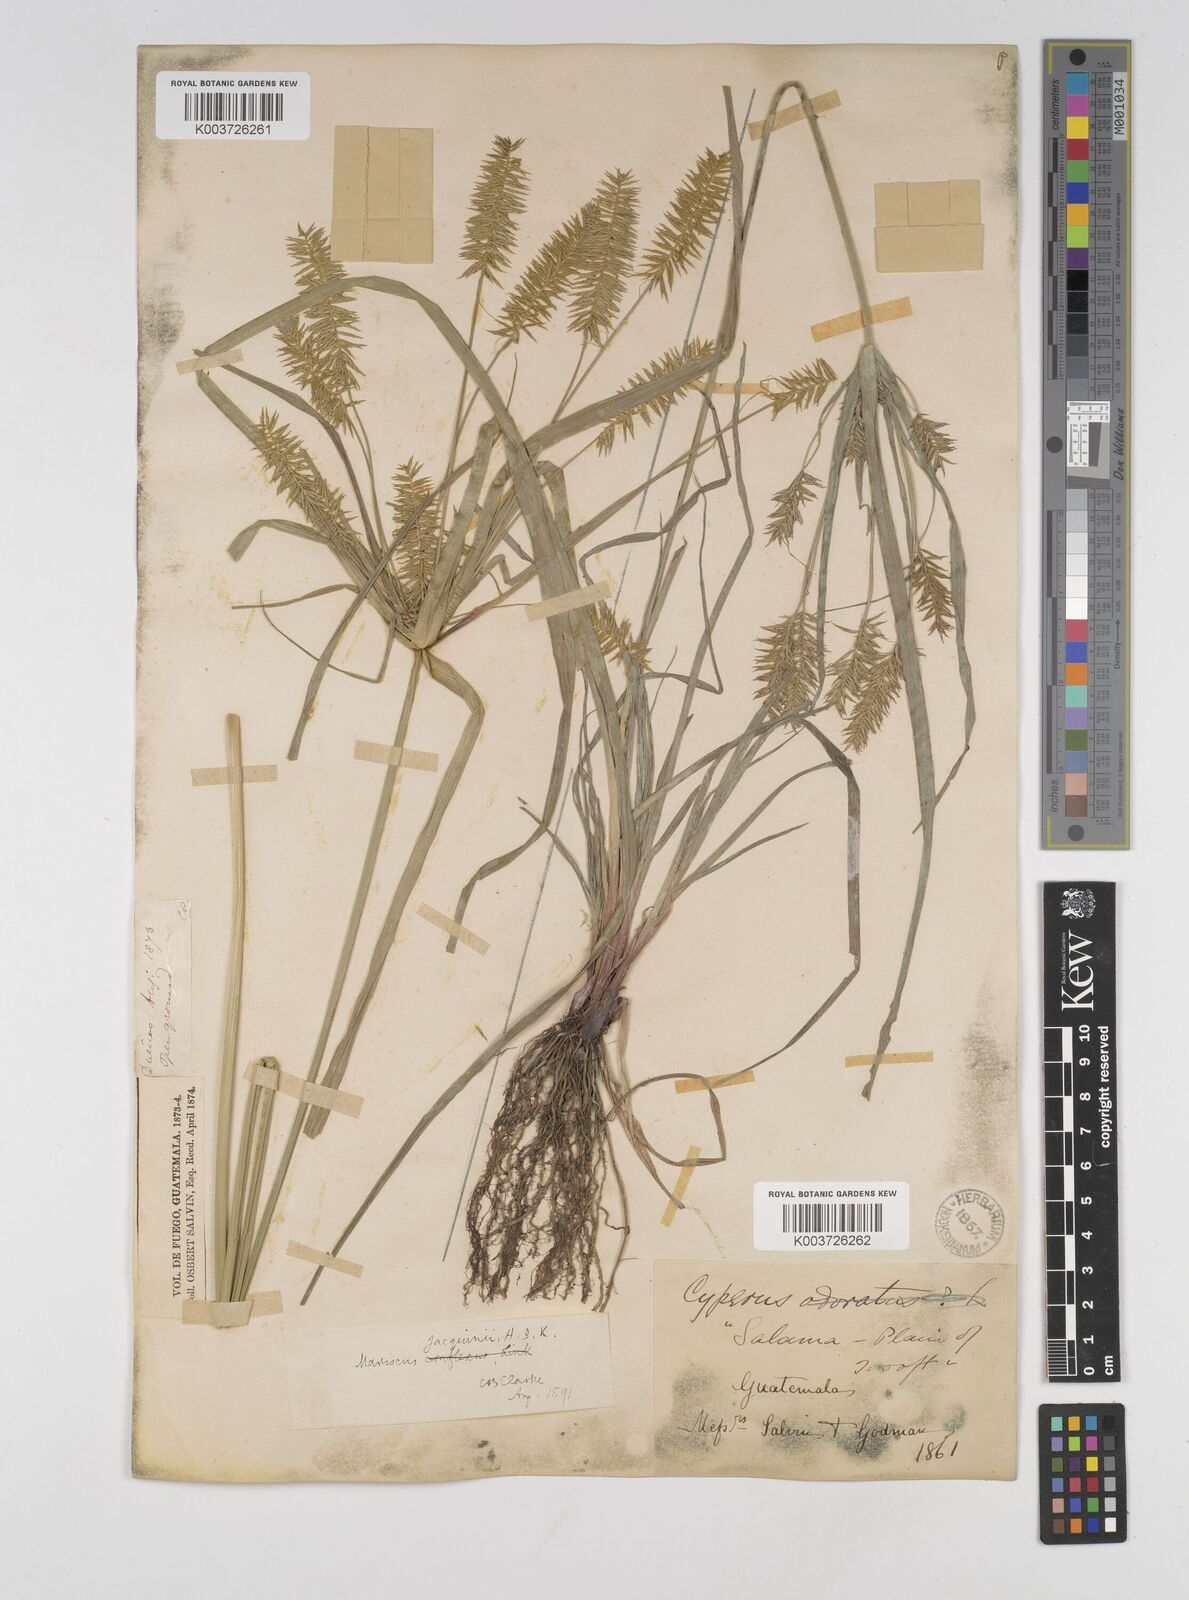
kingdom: Plantae
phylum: Tracheophyta
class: Liliopsida
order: Poales
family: Cyperaceae
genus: Cyperus
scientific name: Cyperus hermaphroditus
